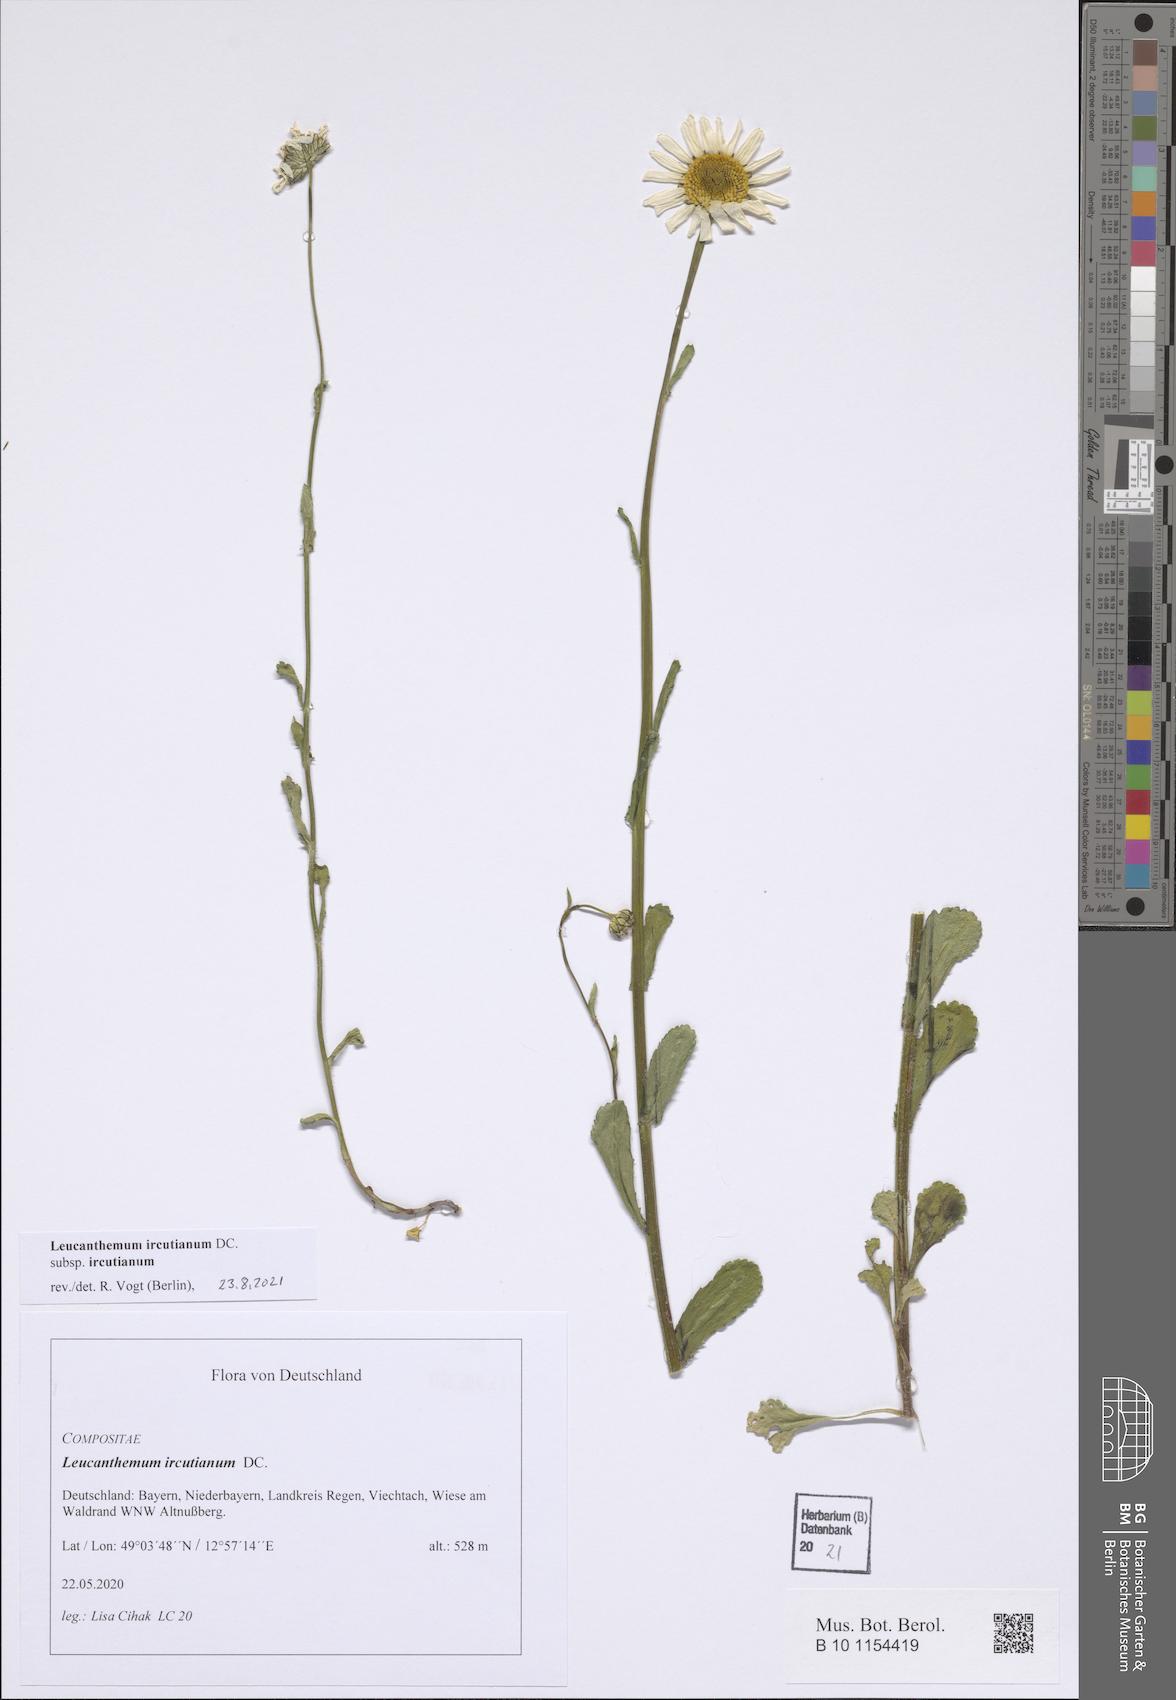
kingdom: Plantae
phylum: Tracheophyta
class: Magnoliopsida
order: Asterales
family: Asteraceae
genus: Leucanthemum
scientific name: Leucanthemum ircutianum
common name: Daisy
